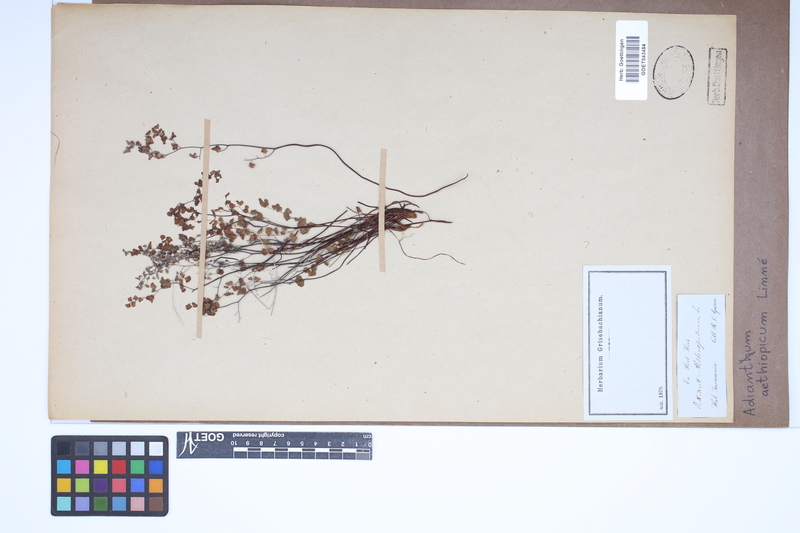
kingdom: Plantae
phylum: Tracheophyta
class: Polypodiopsida
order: Polypodiales
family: Pteridaceae
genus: Adiantum
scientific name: Adiantum aethiopicum
